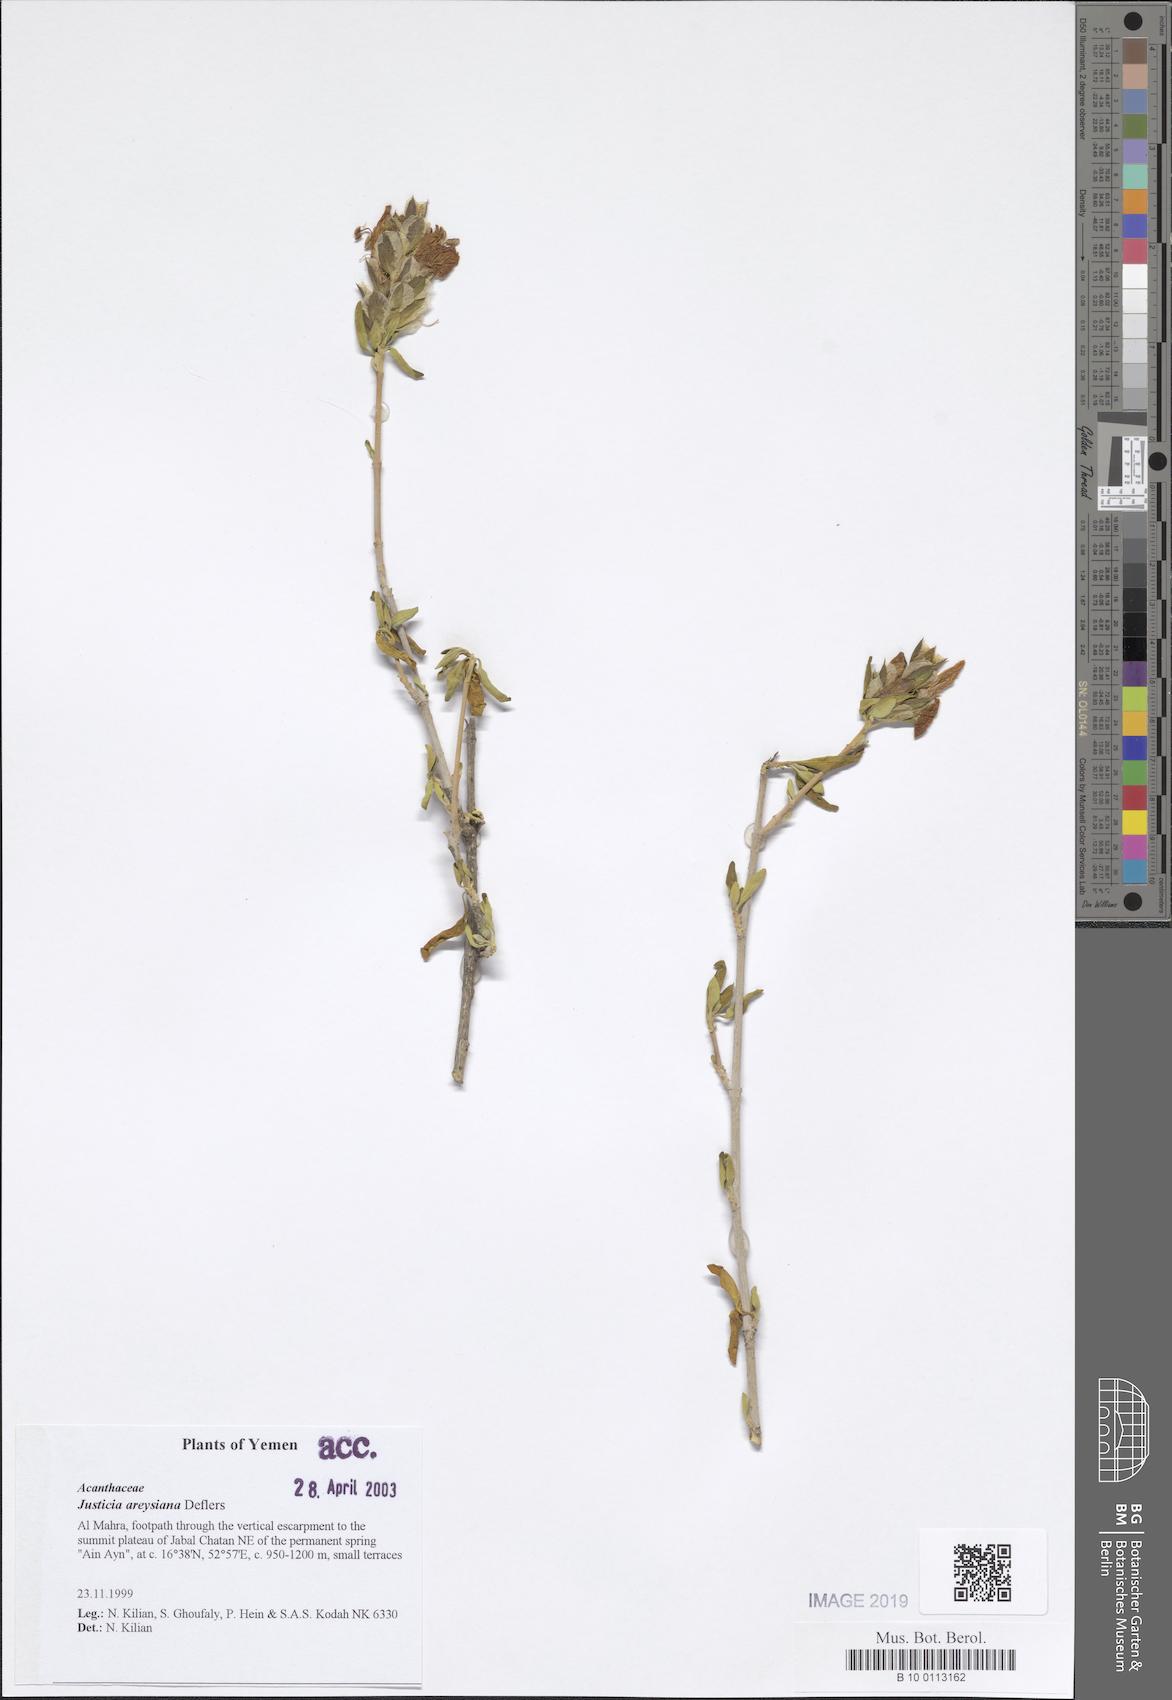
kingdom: Plantae
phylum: Tracheophyta
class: Magnoliopsida
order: Lamiales
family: Acanthaceae
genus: Justicia
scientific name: Justicia areysiana
